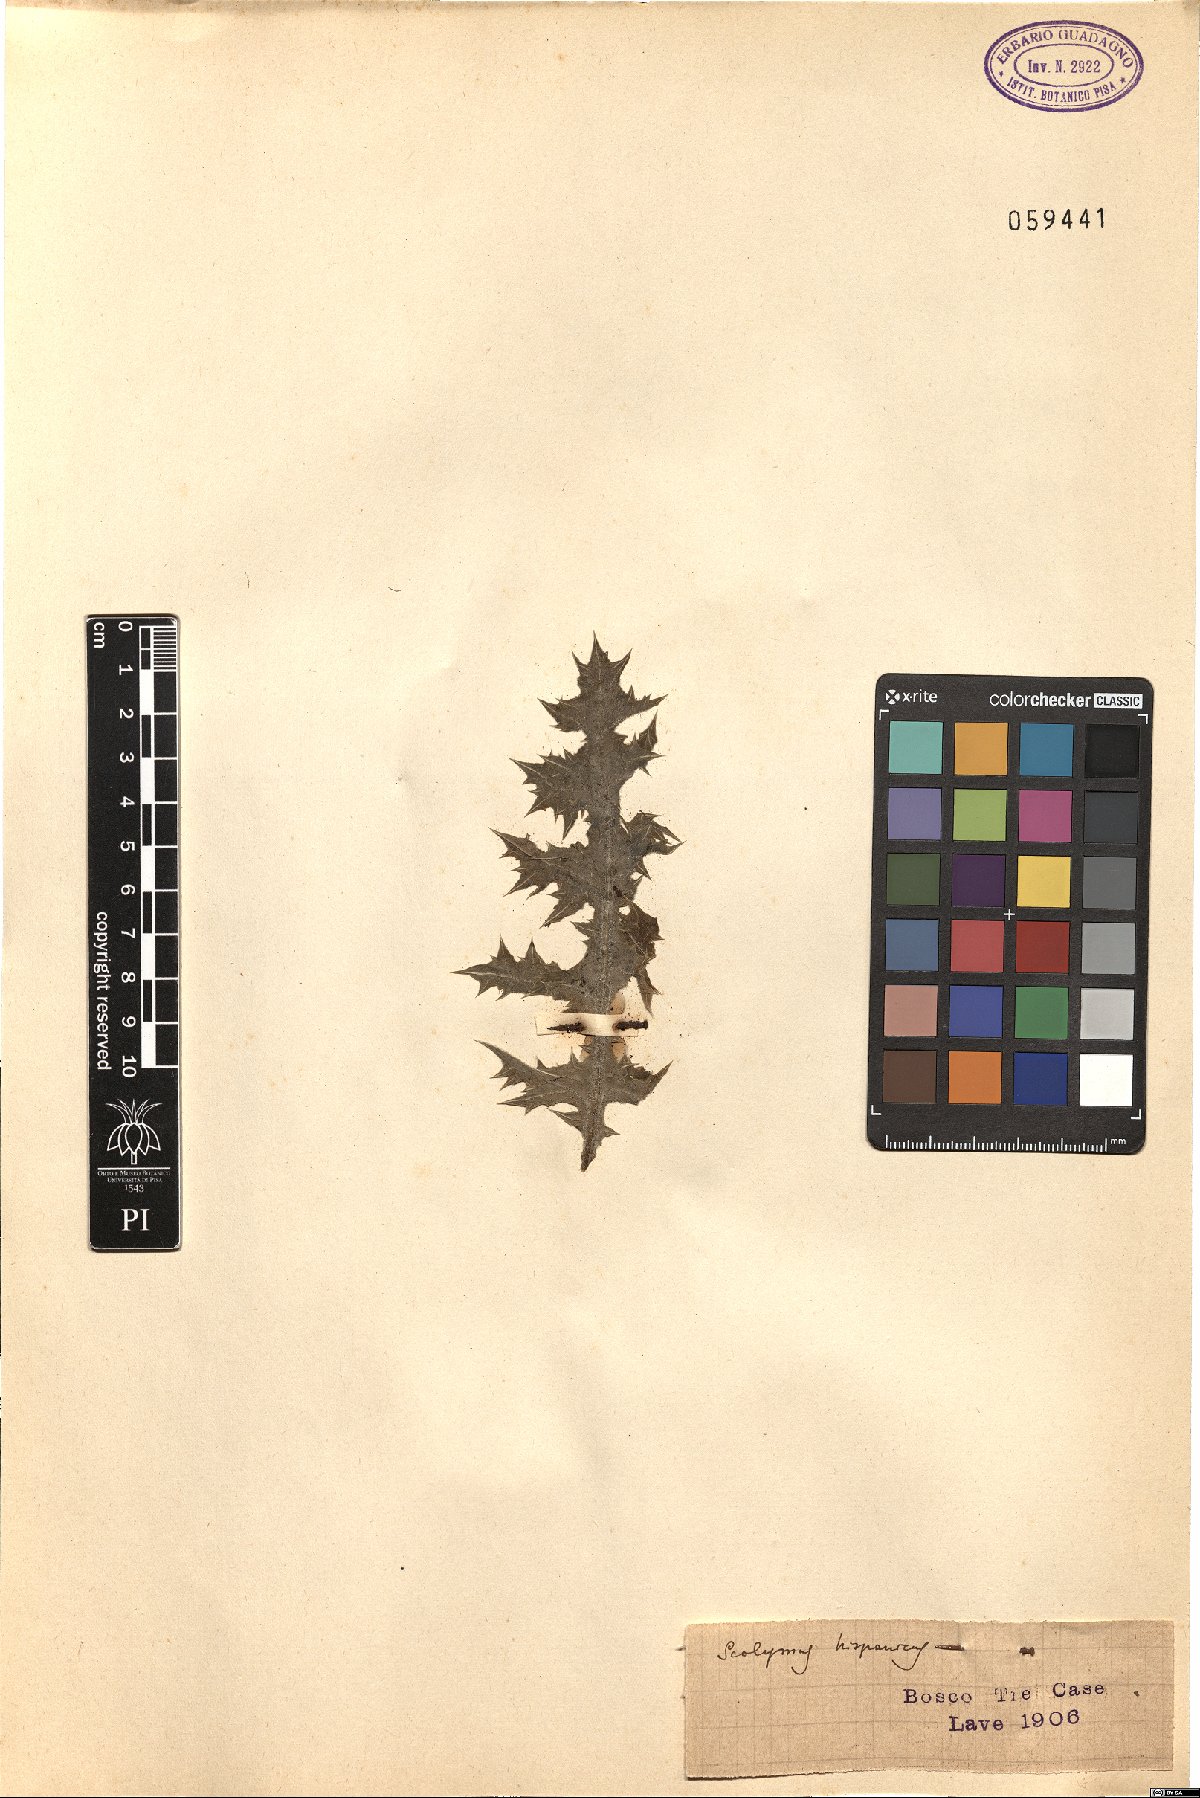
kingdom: Plantae
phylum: Tracheophyta
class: Magnoliopsida
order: Asterales
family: Asteraceae
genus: Scolymus
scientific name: Scolymus hispanicus
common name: Golden thistle
